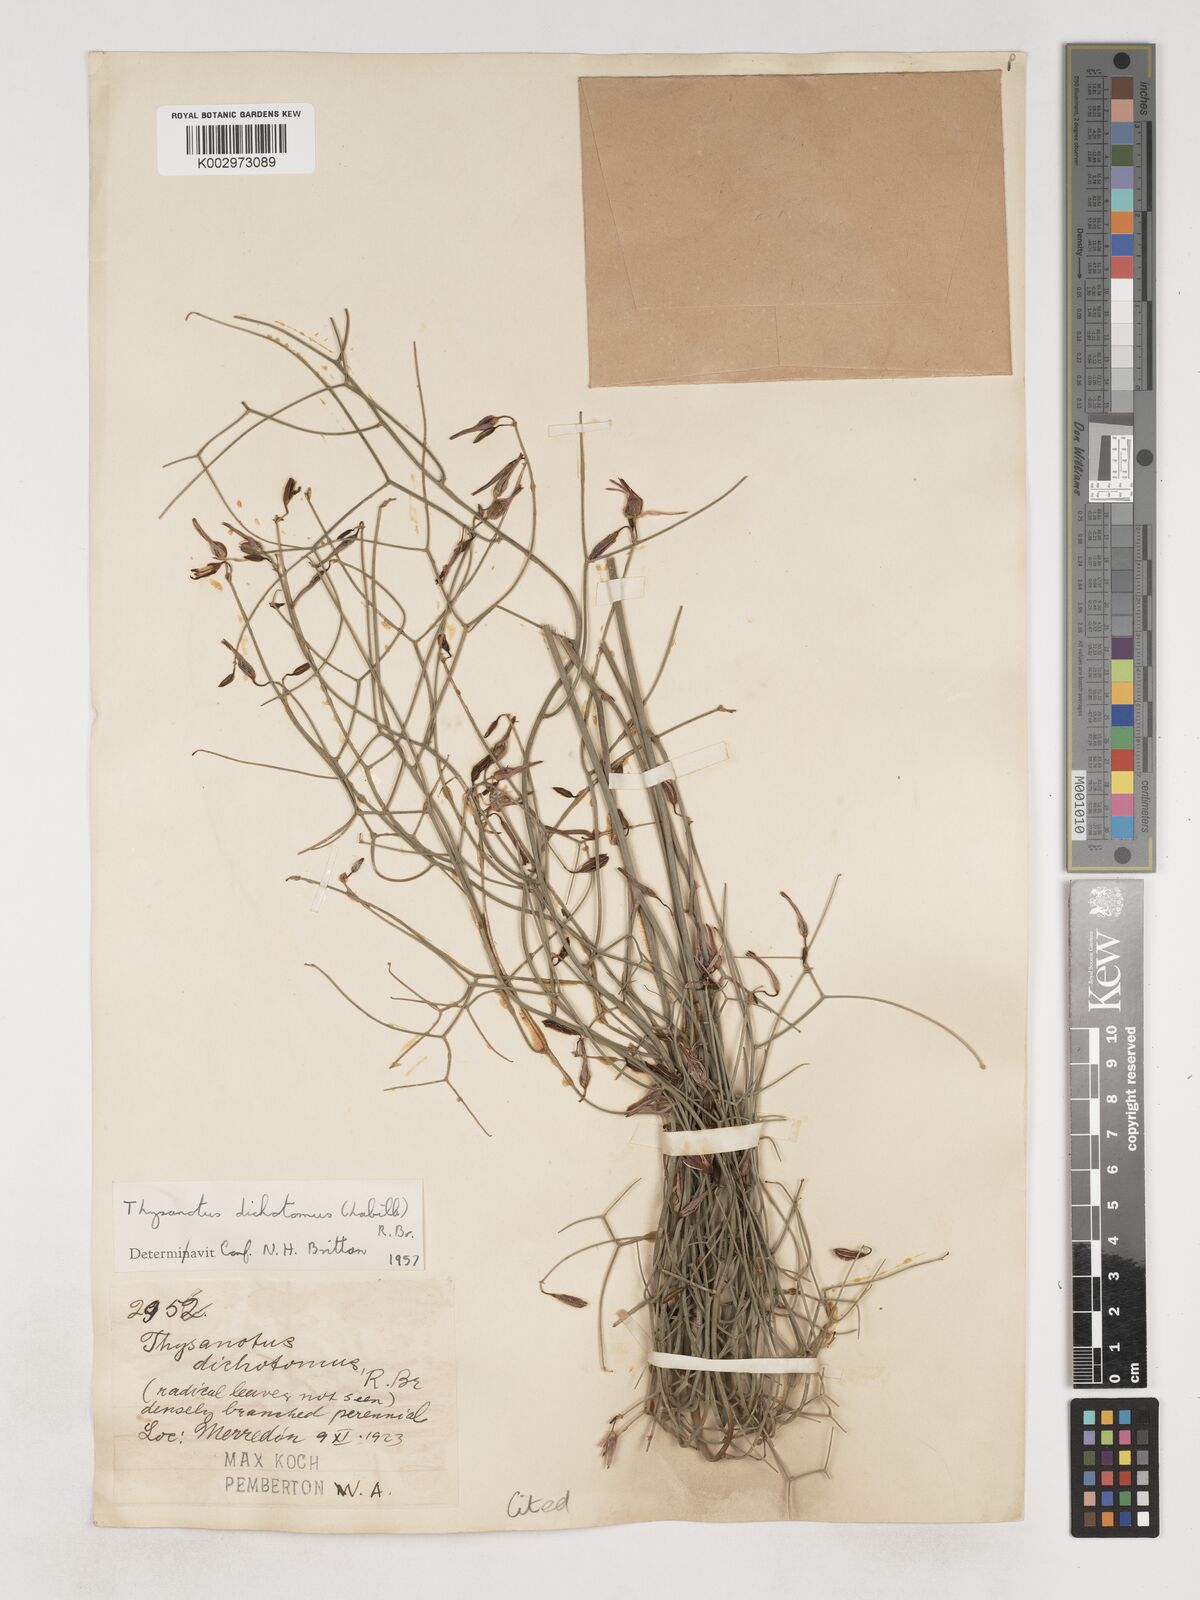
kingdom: Plantae
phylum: Tracheophyta
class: Liliopsida
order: Asparagales
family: Asparagaceae
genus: Thysanotus
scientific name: Thysanotus dichotomus
